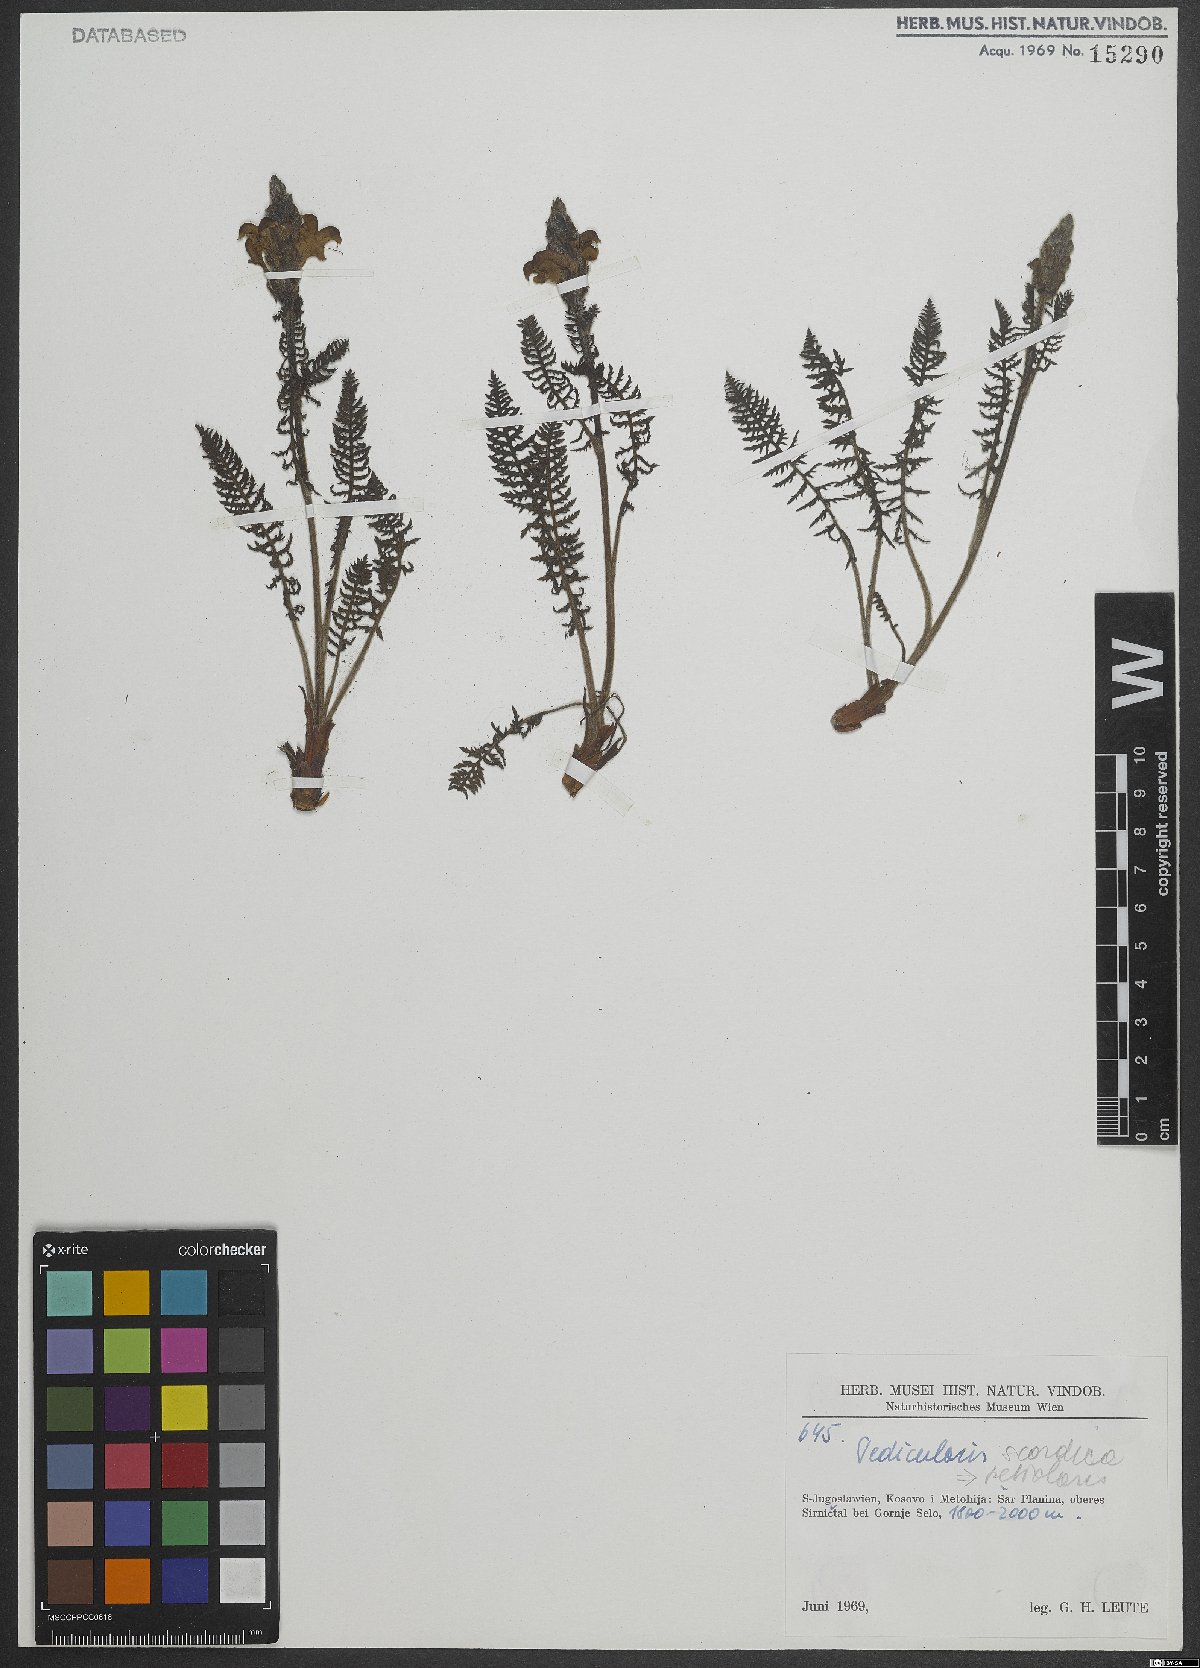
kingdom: Plantae
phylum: Tracheophyta
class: Magnoliopsida
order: Lamiales
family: Orobanchaceae
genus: Pedicularis
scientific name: Pedicularis petiolaris
